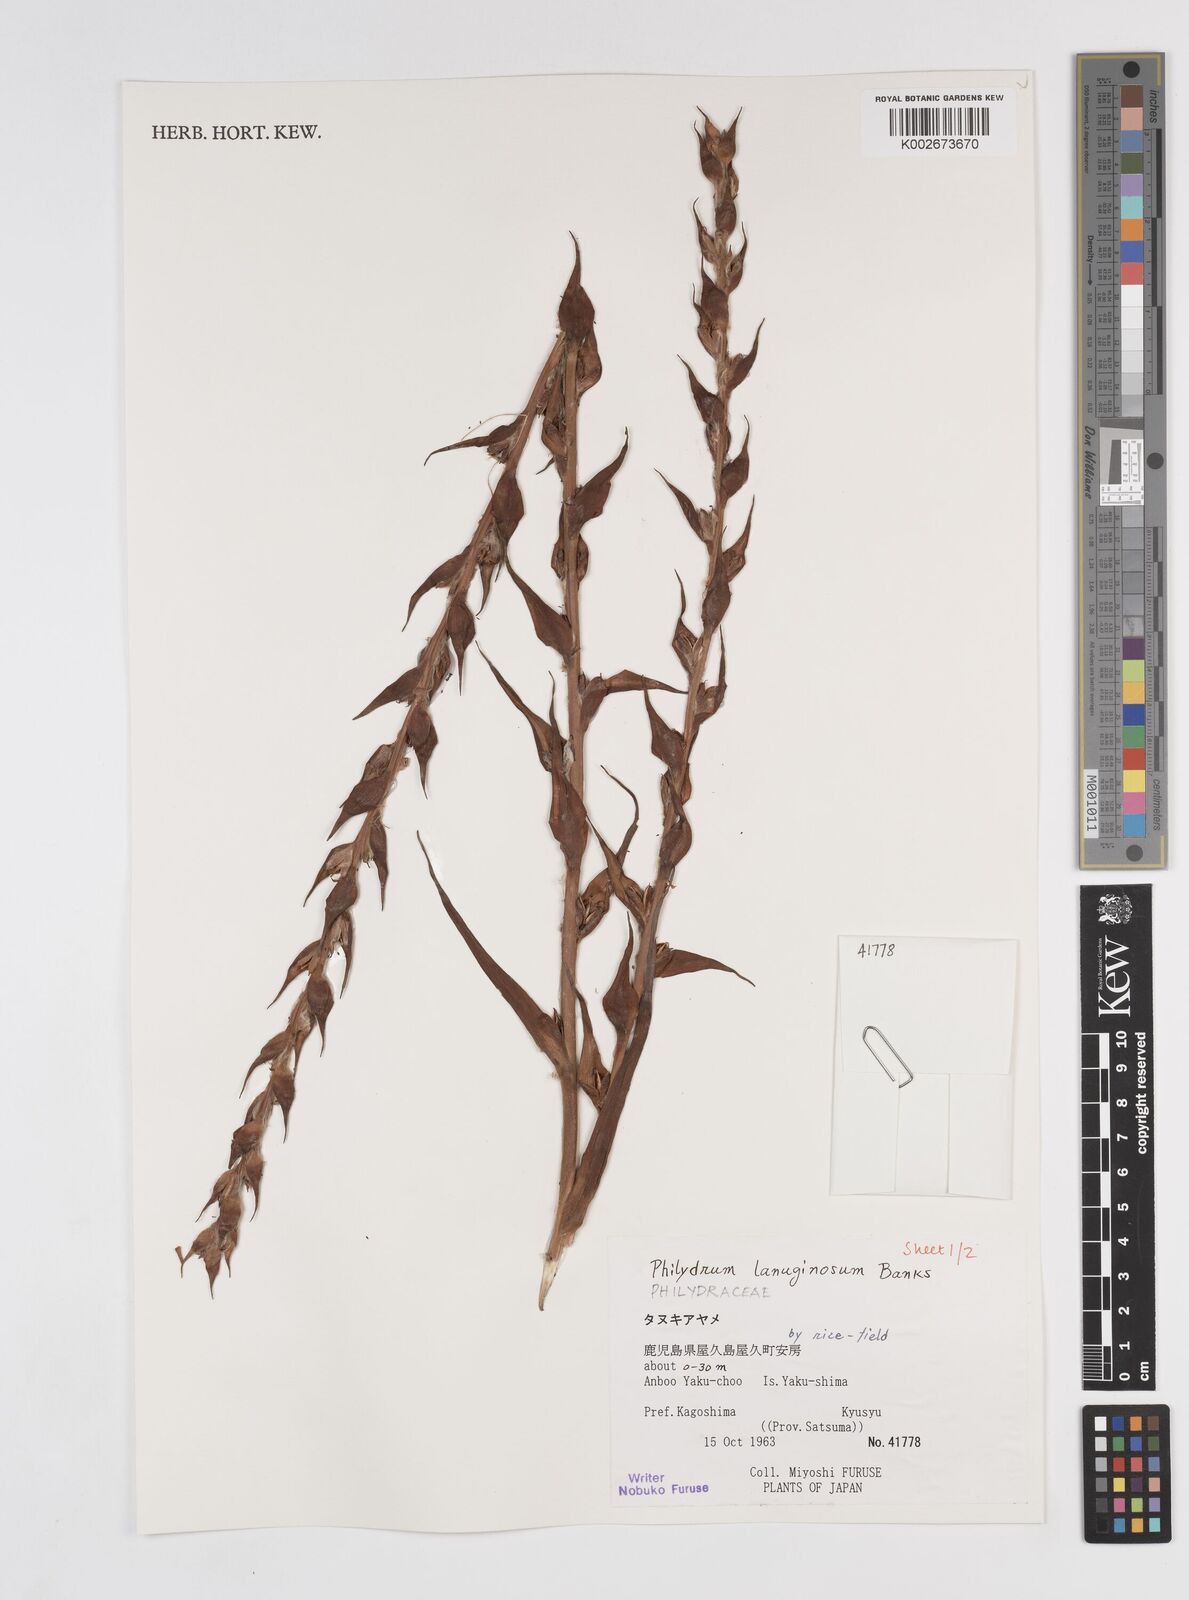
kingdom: Plantae
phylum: Tracheophyta
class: Liliopsida
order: Commelinales
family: Philydraceae
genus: Philydrum
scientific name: Philydrum lanuginosum
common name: Woolly frog's mouth
